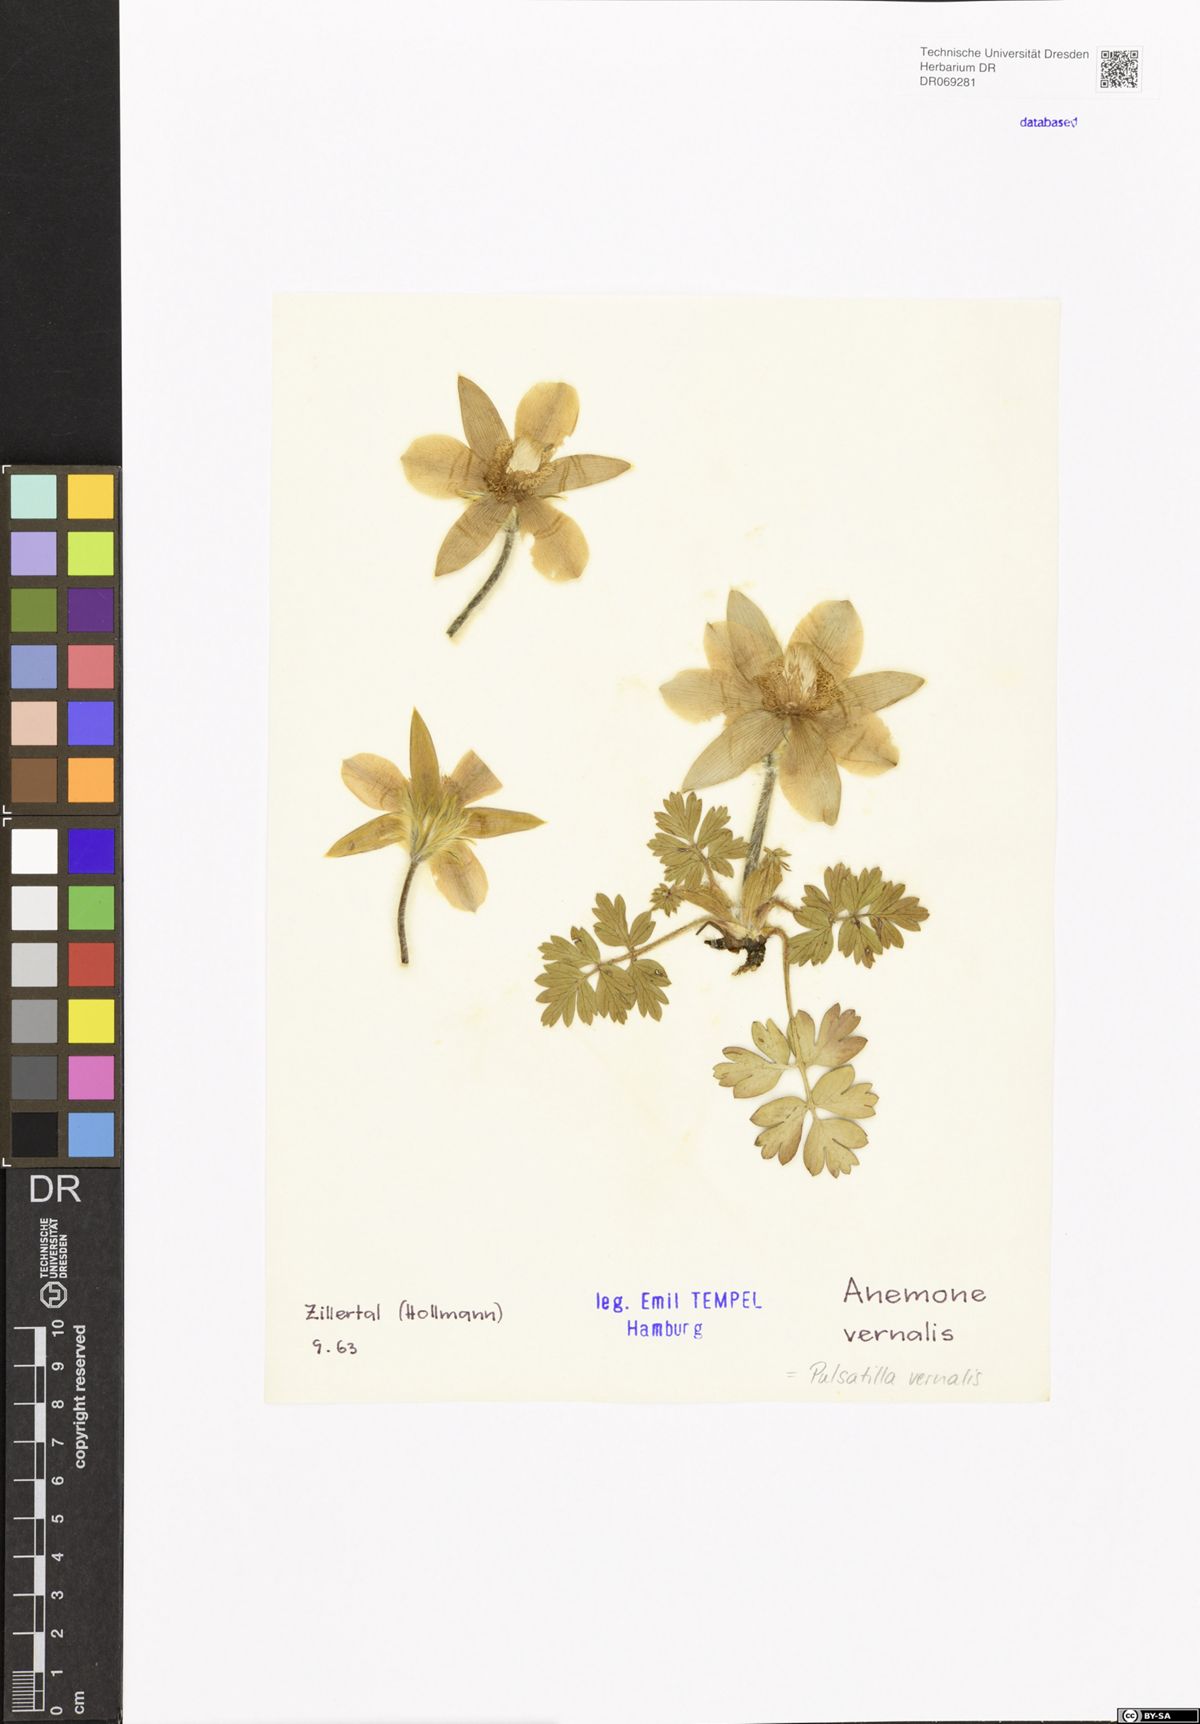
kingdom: Plantae
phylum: Tracheophyta
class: Magnoliopsida
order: Ranunculales
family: Ranunculaceae
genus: Pulsatilla
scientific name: Pulsatilla vernalis
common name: Spring pasque flower
